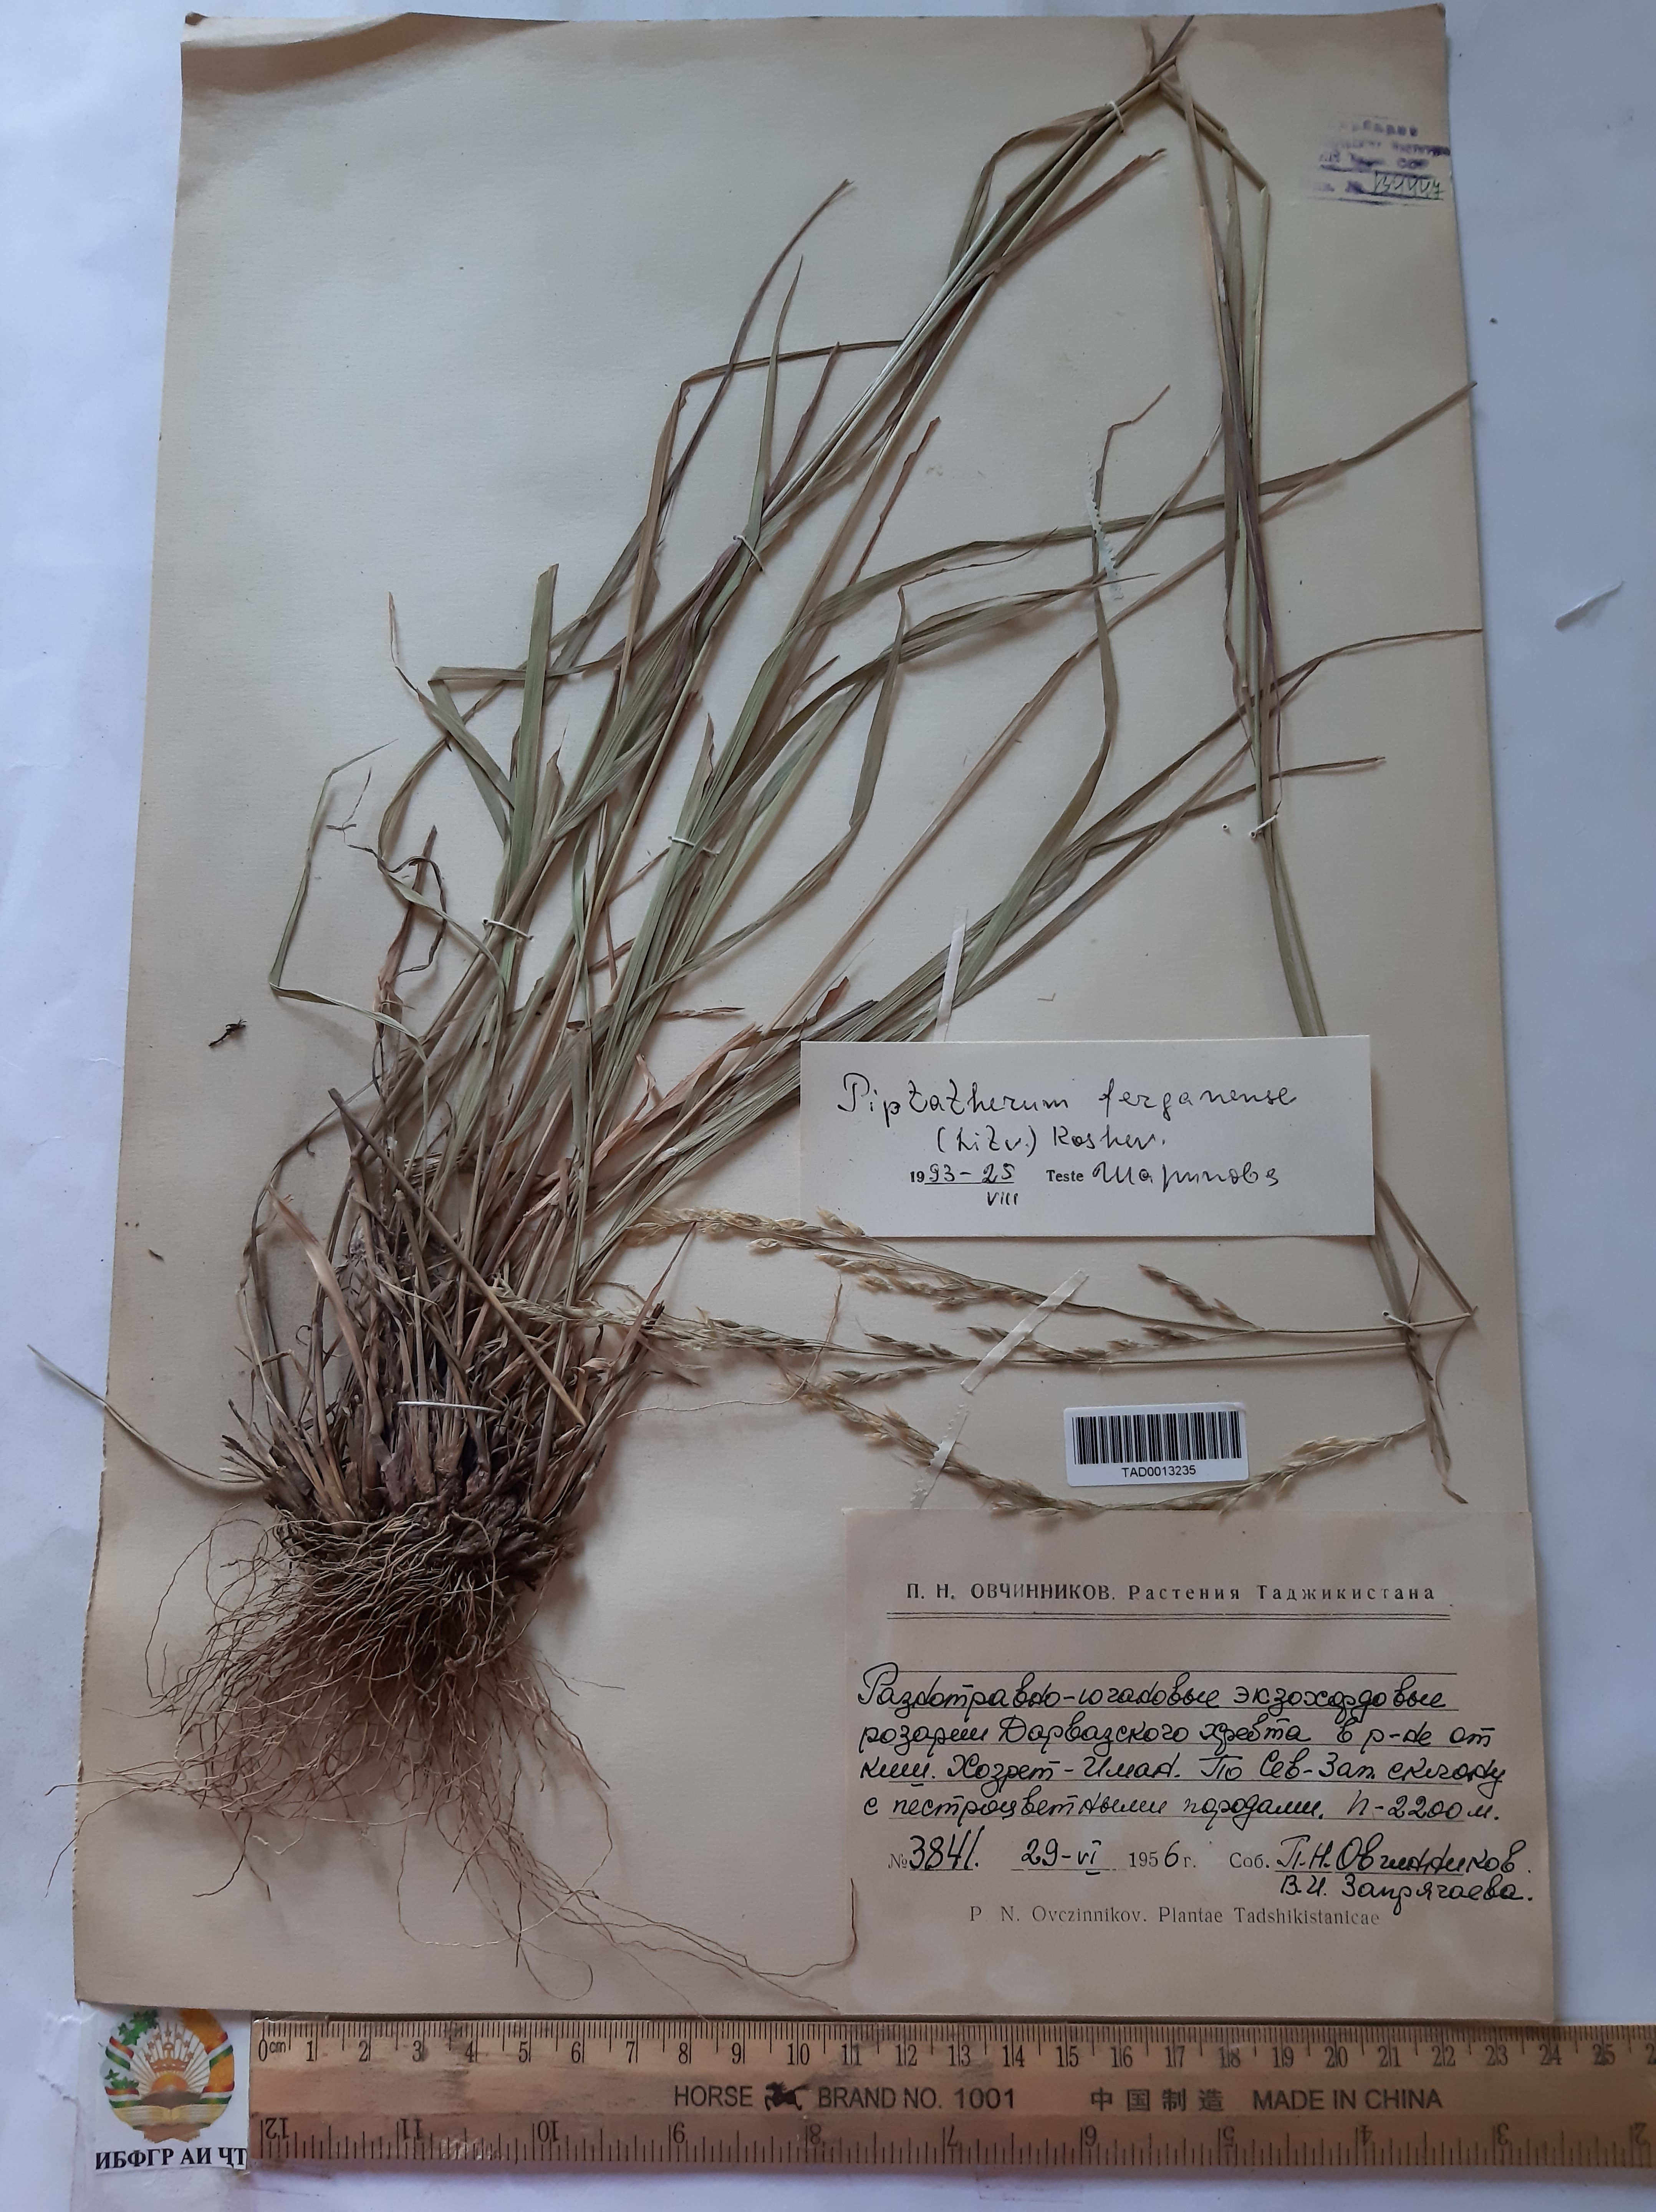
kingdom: Plantae
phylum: Tracheophyta
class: Liliopsida
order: Poales
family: Poaceae
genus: Piptatherum
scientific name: Piptatherum ferganense
